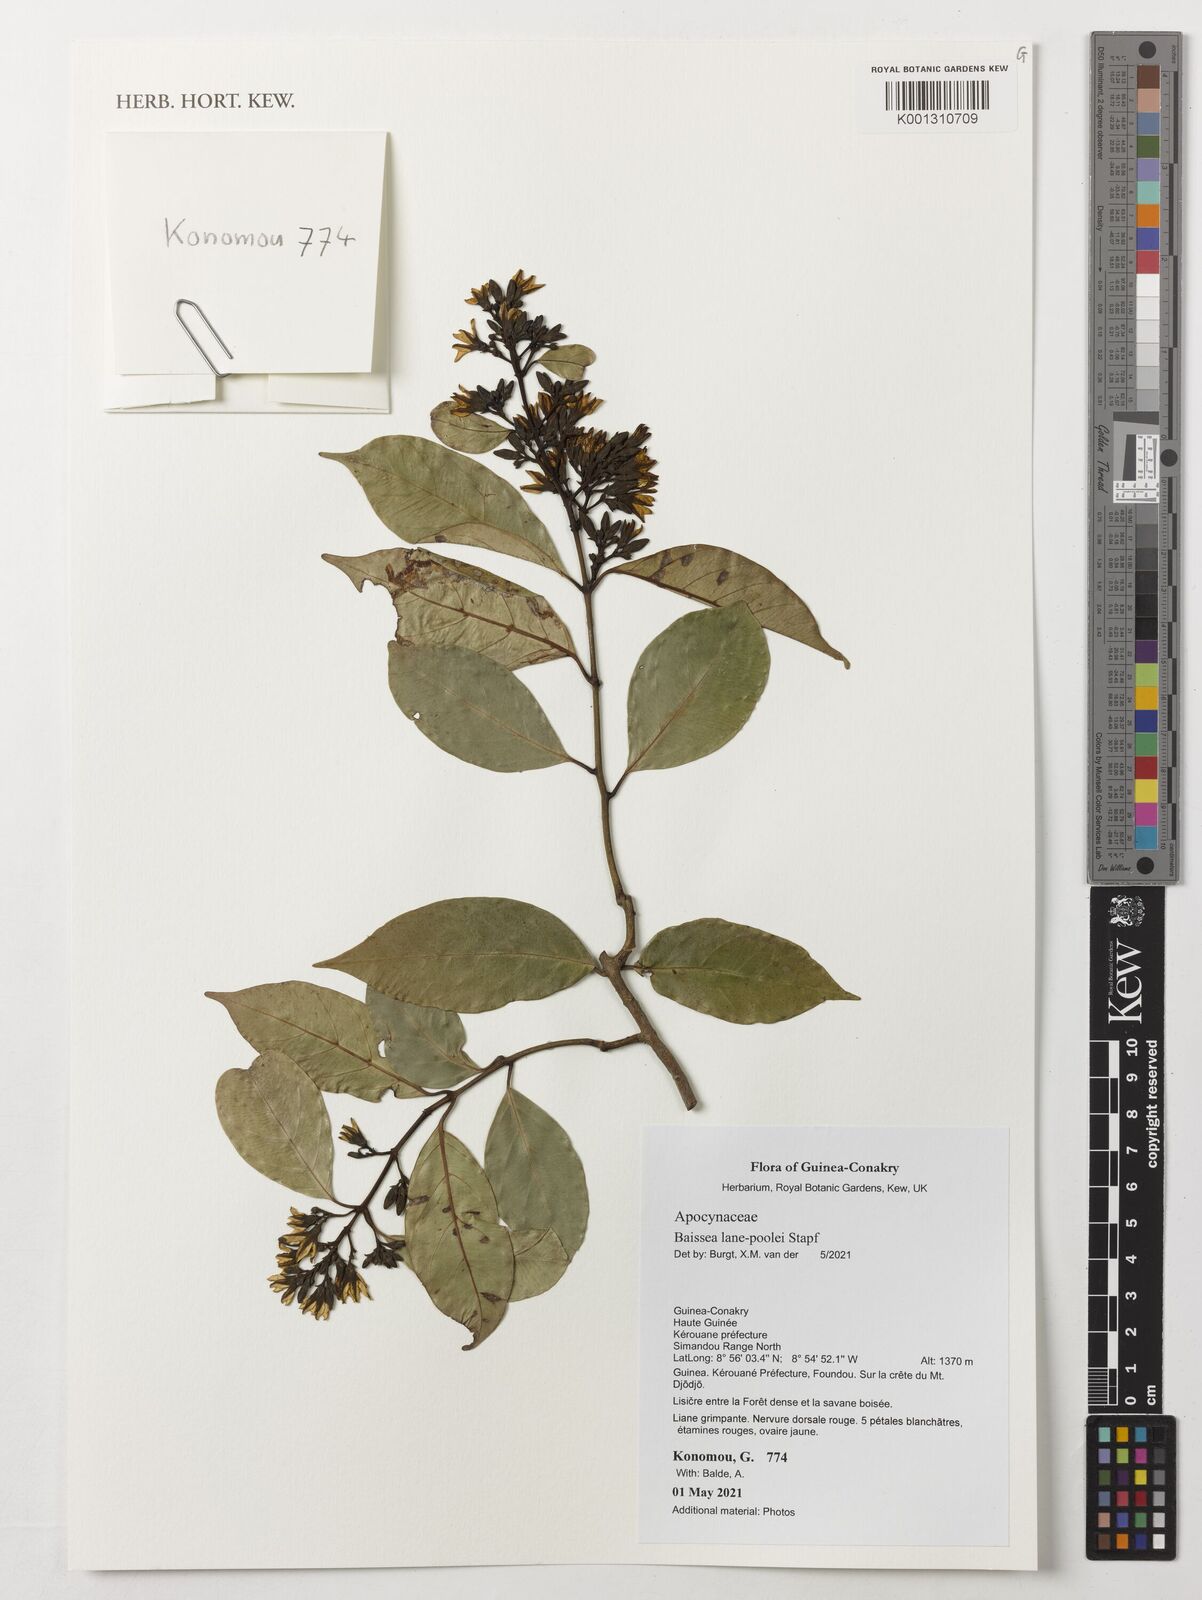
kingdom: Plantae
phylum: Tracheophyta
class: Magnoliopsida
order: Gentianales
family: Apocynaceae
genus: Baissea
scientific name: Baissea lane-poolei
